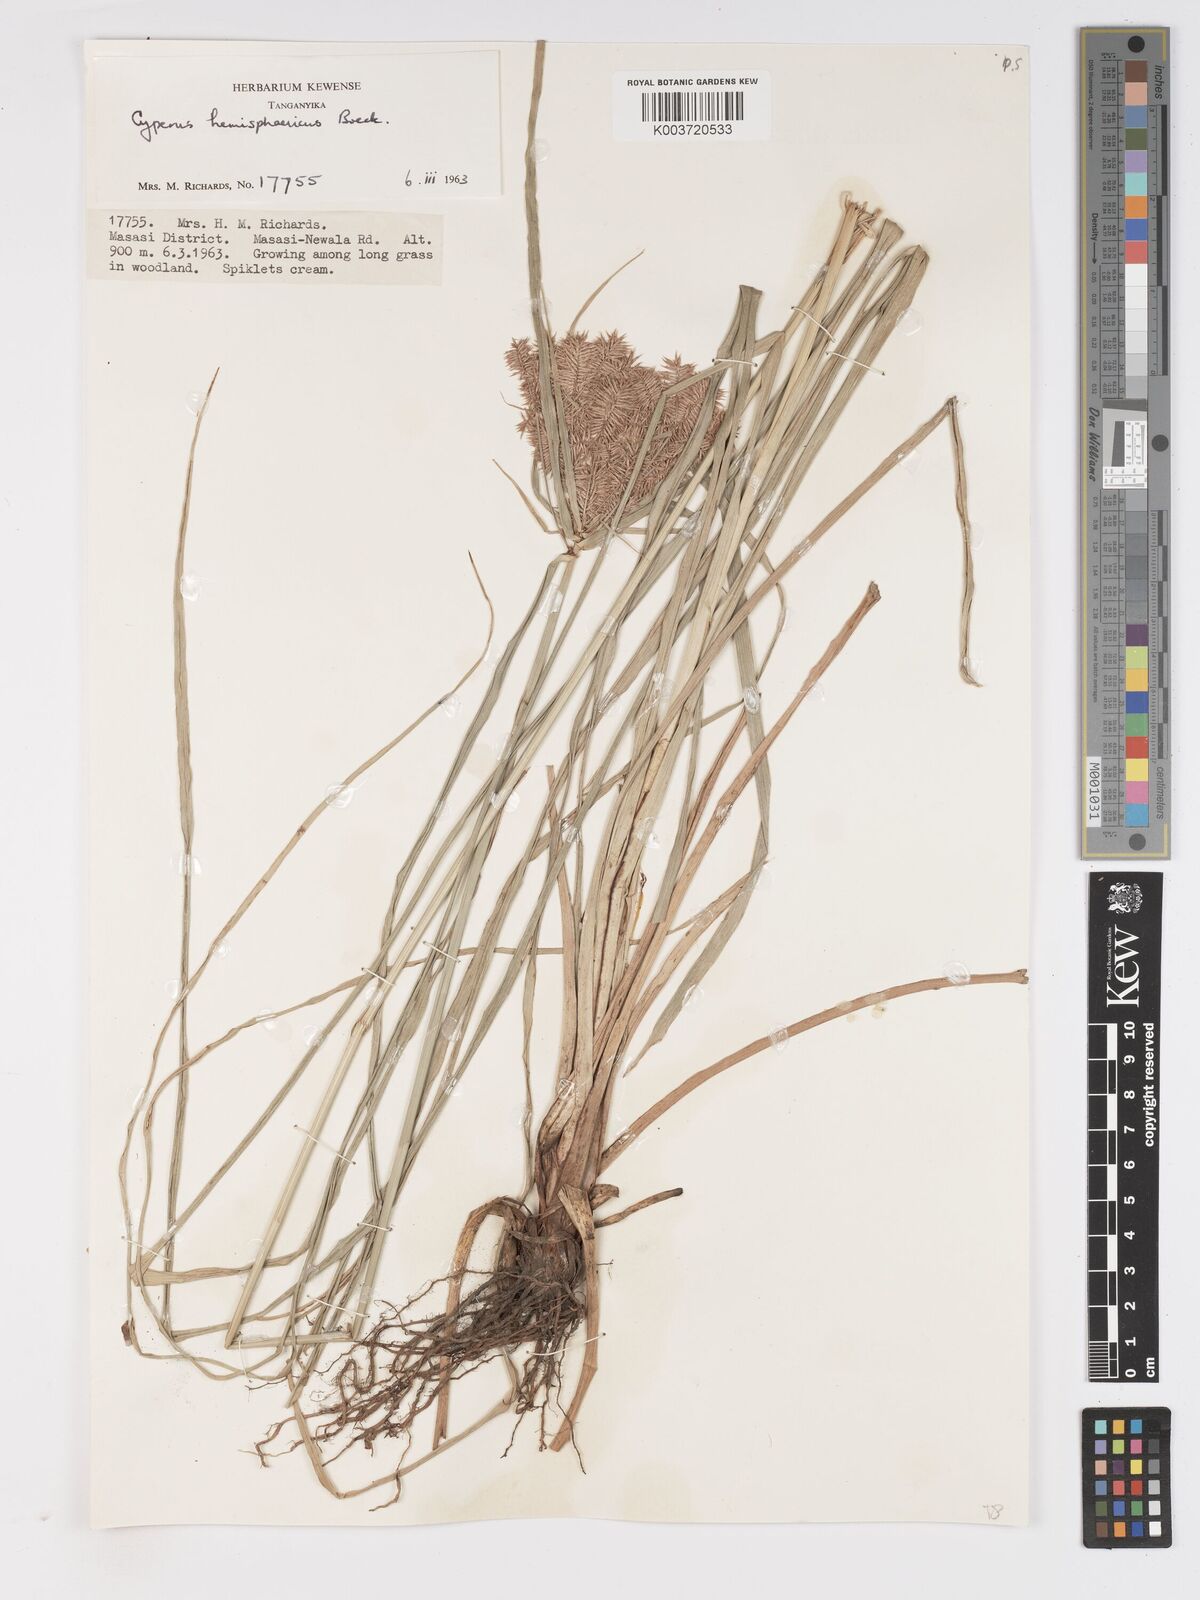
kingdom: Plantae
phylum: Tracheophyta
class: Liliopsida
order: Poales
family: Cyperaceae
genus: Cyperus
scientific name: Cyperus hemisphaericus
